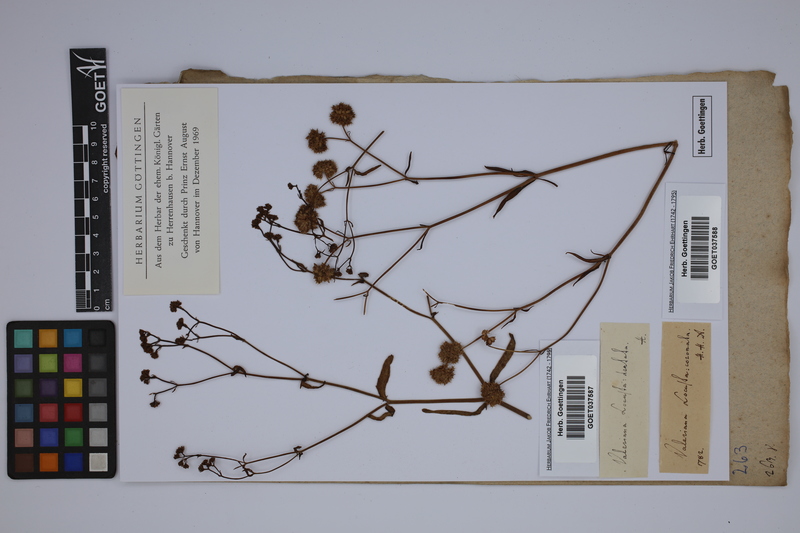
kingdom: Plantae
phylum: Tracheophyta
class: Magnoliopsida
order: Dipsacales
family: Caprifoliaceae
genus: Valerianella
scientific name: Valerianella dentata
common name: Narrow-fruited cornsalad
